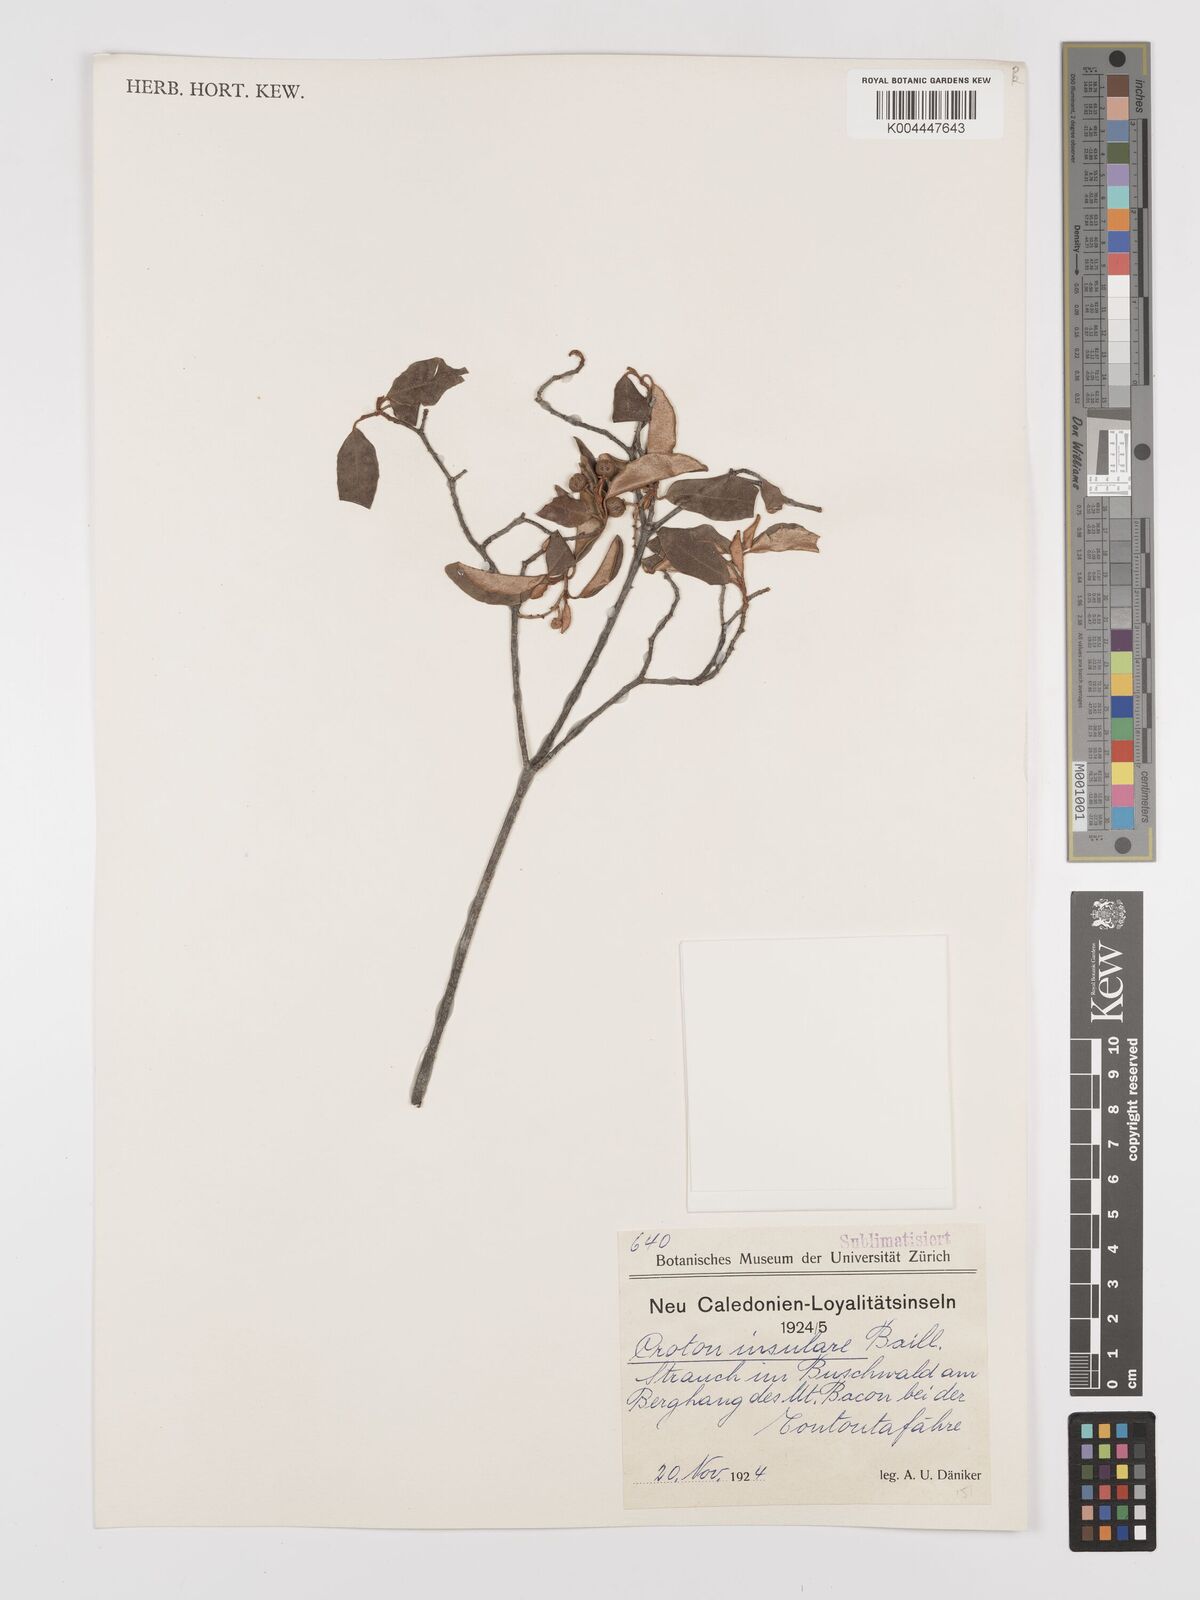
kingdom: Plantae
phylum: Tracheophyta
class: Magnoliopsida
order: Malpighiales
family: Euphorbiaceae
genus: Croton
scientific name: Croton insularis
